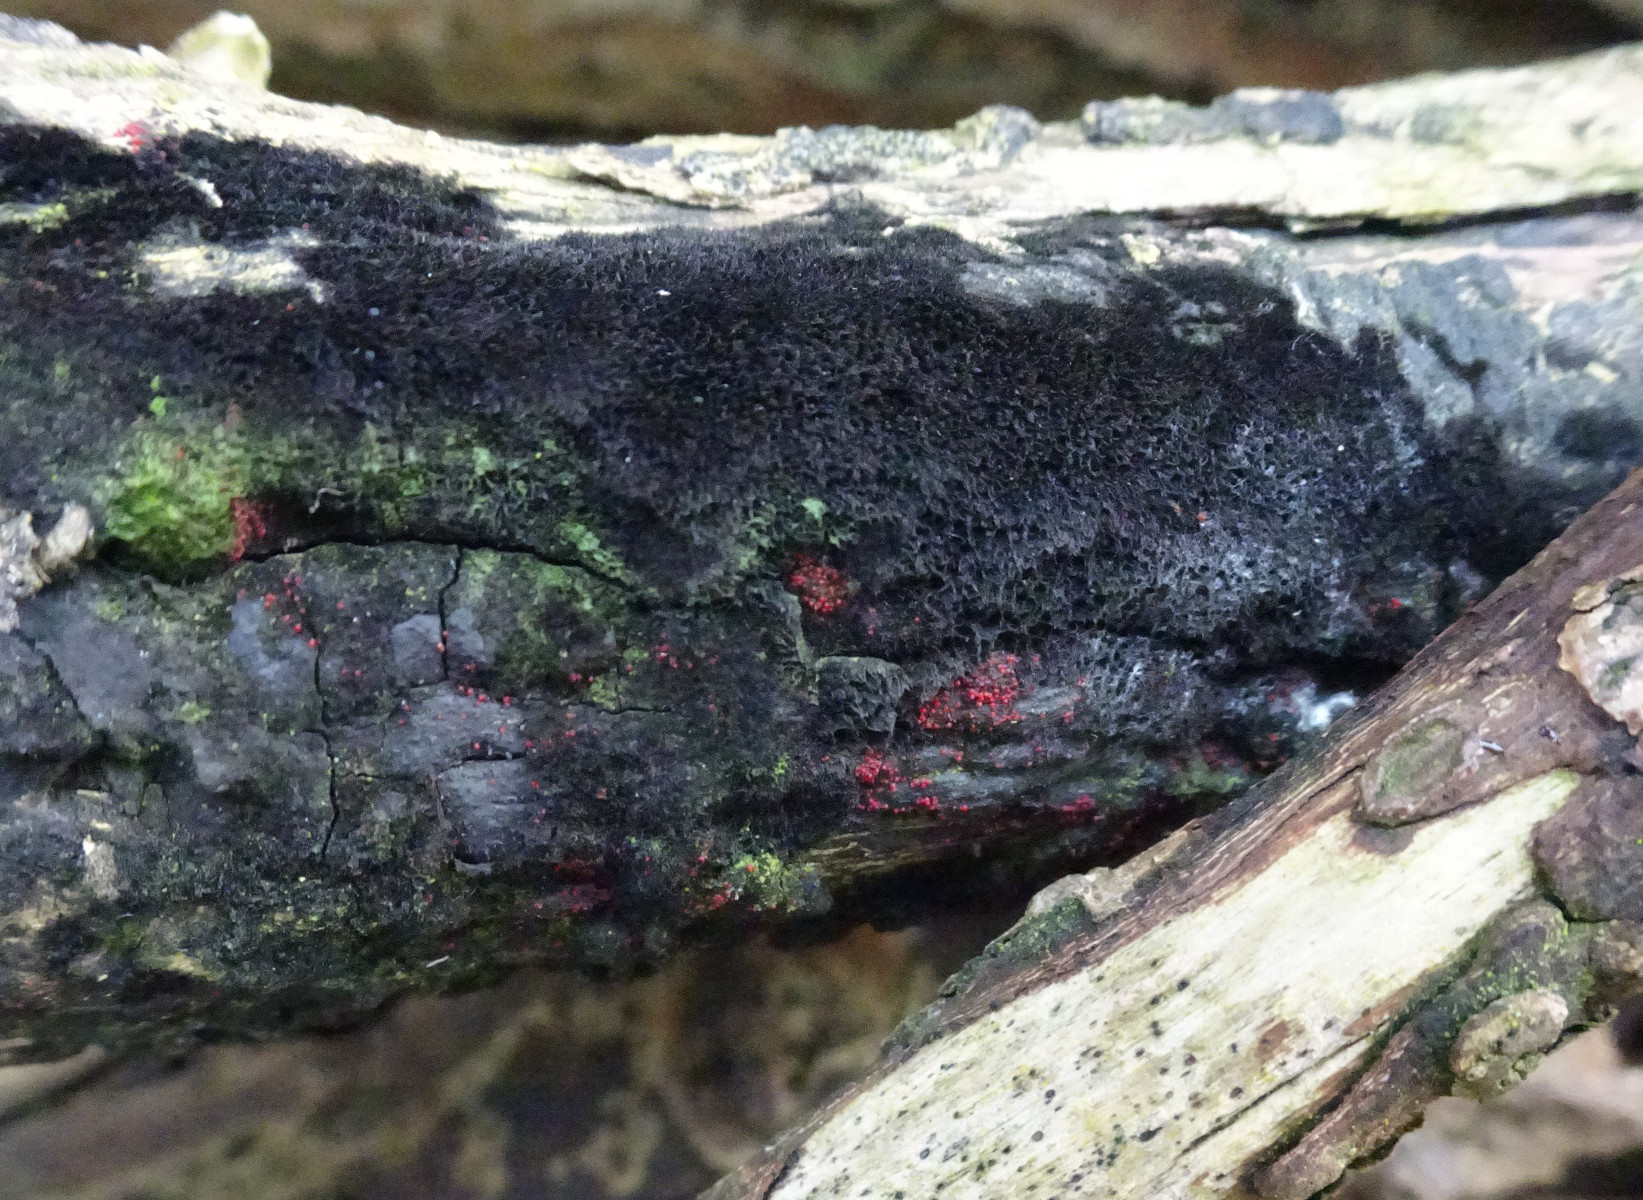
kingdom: Fungi
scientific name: Fungi
